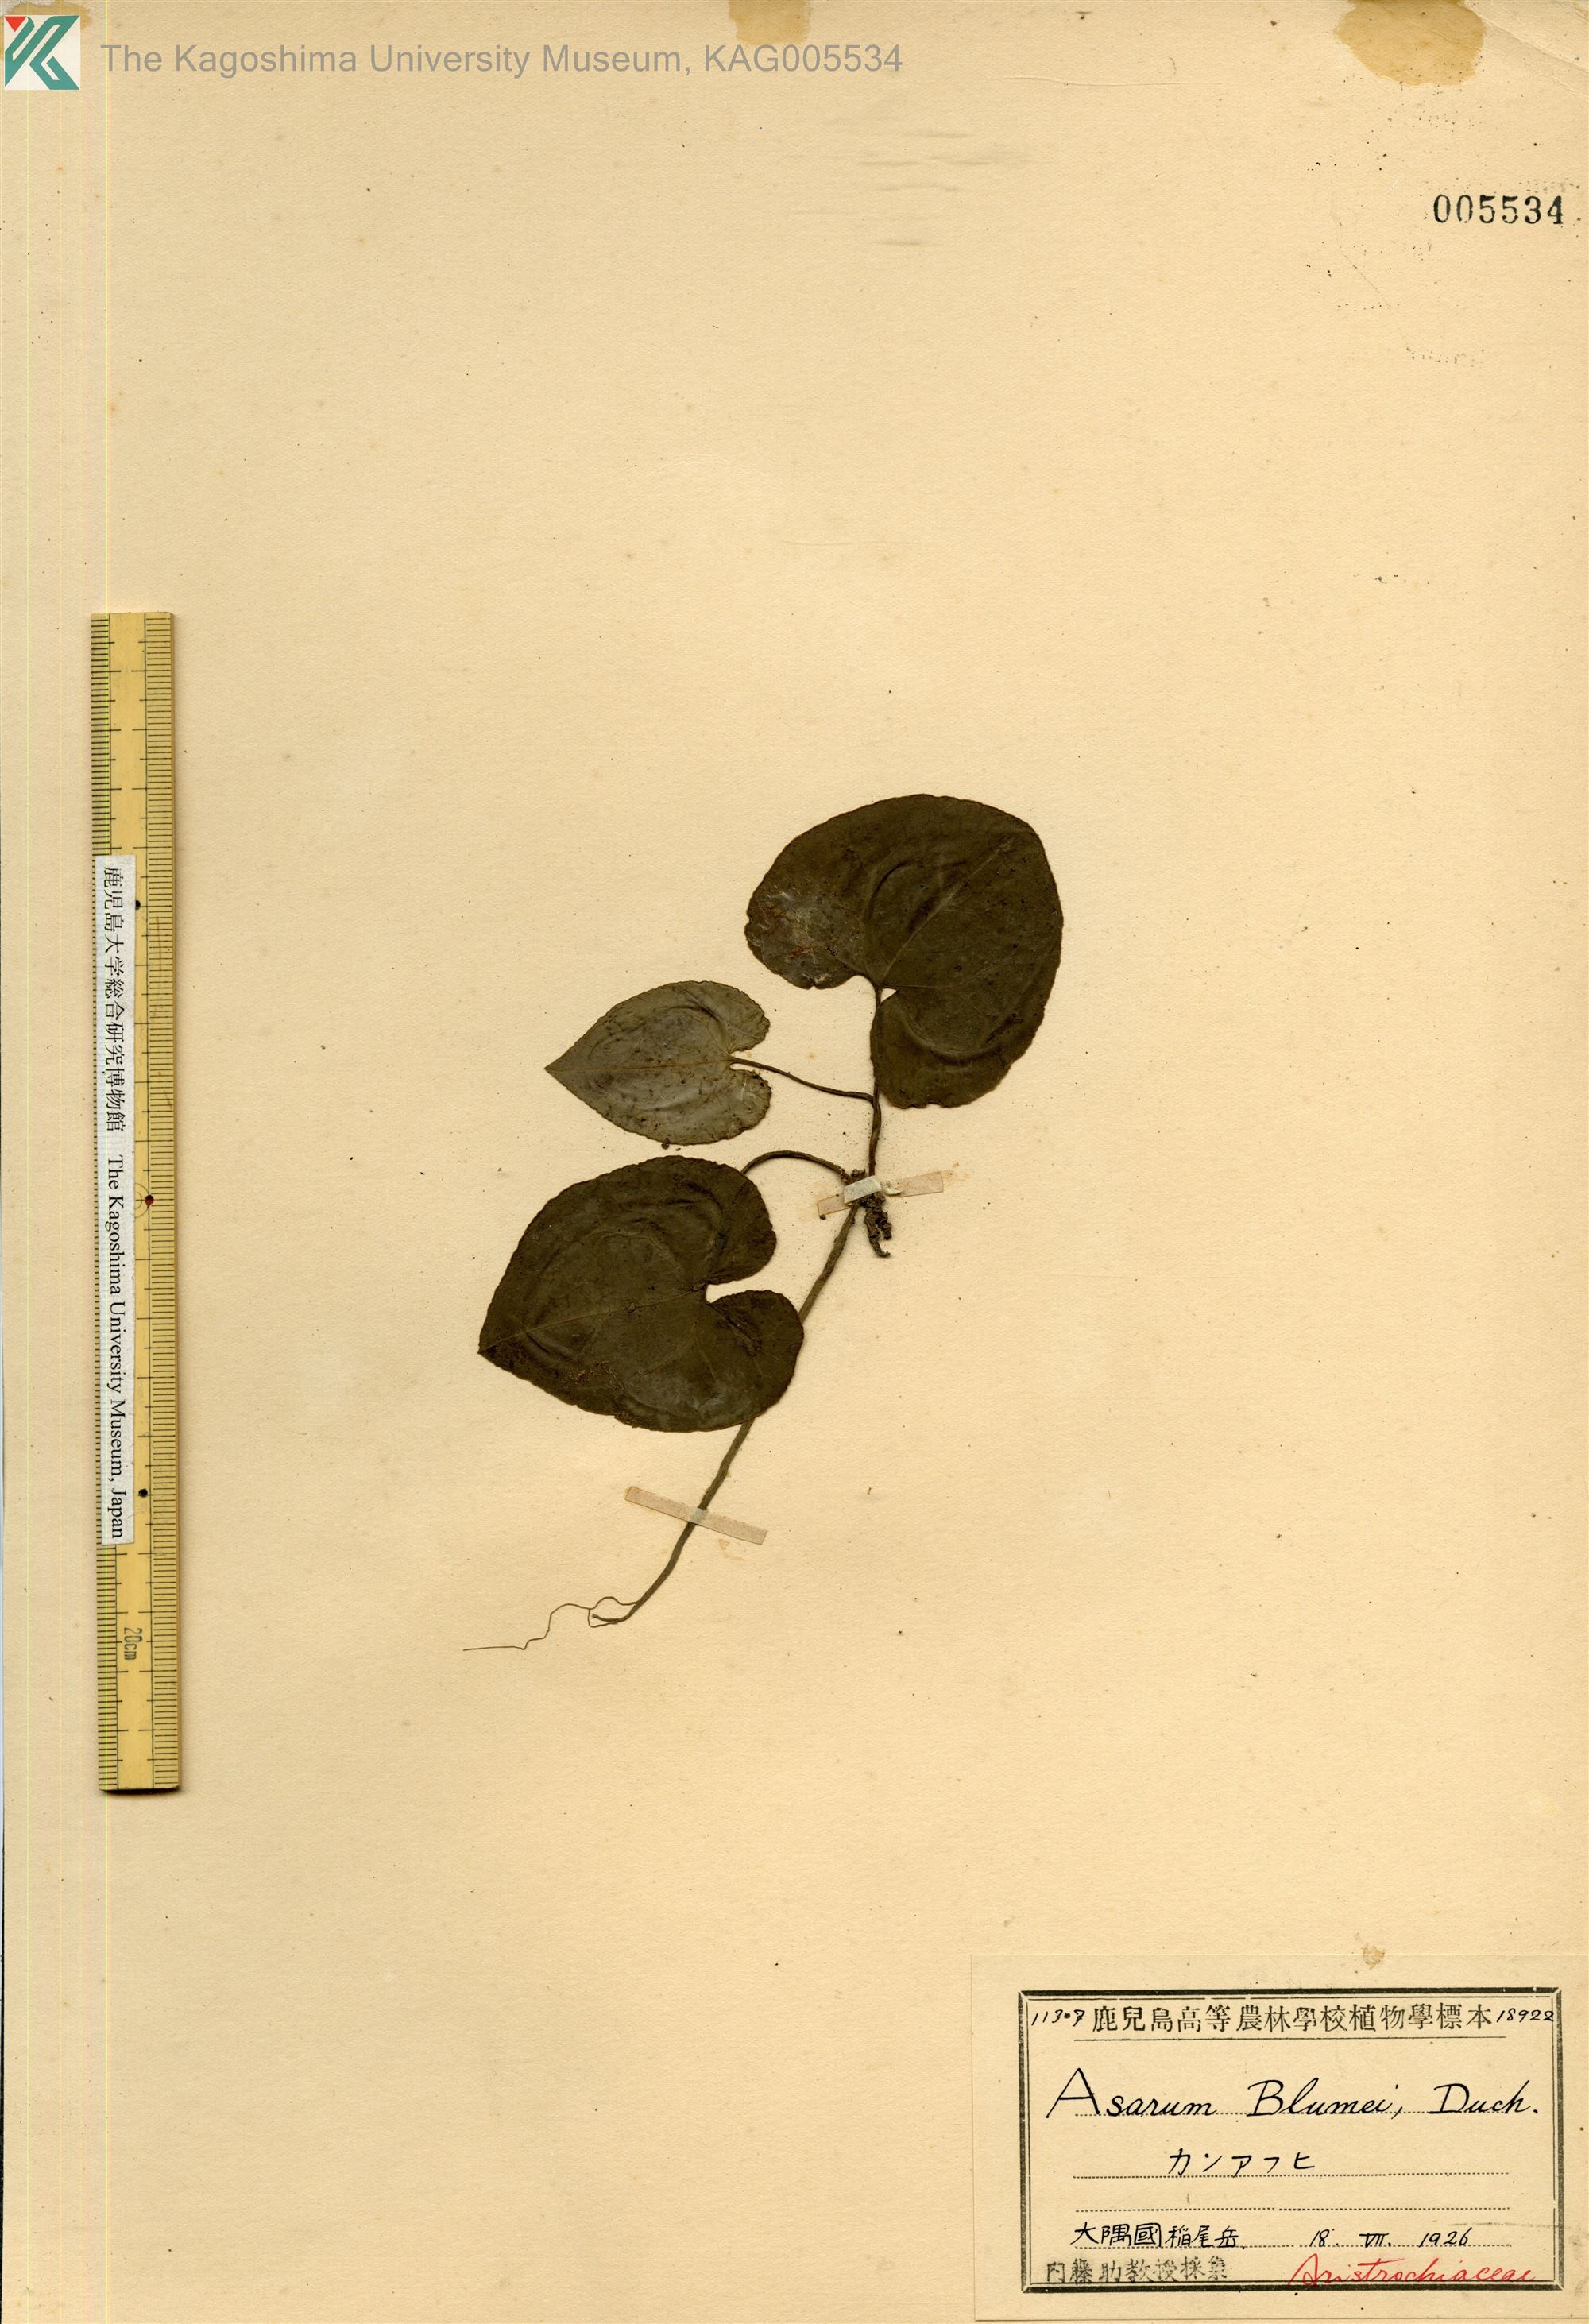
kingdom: Plantae
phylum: Tracheophyta
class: Magnoliopsida
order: Piperales
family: Aristolochiaceae
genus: Asarum
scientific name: Asarum hexalobum
